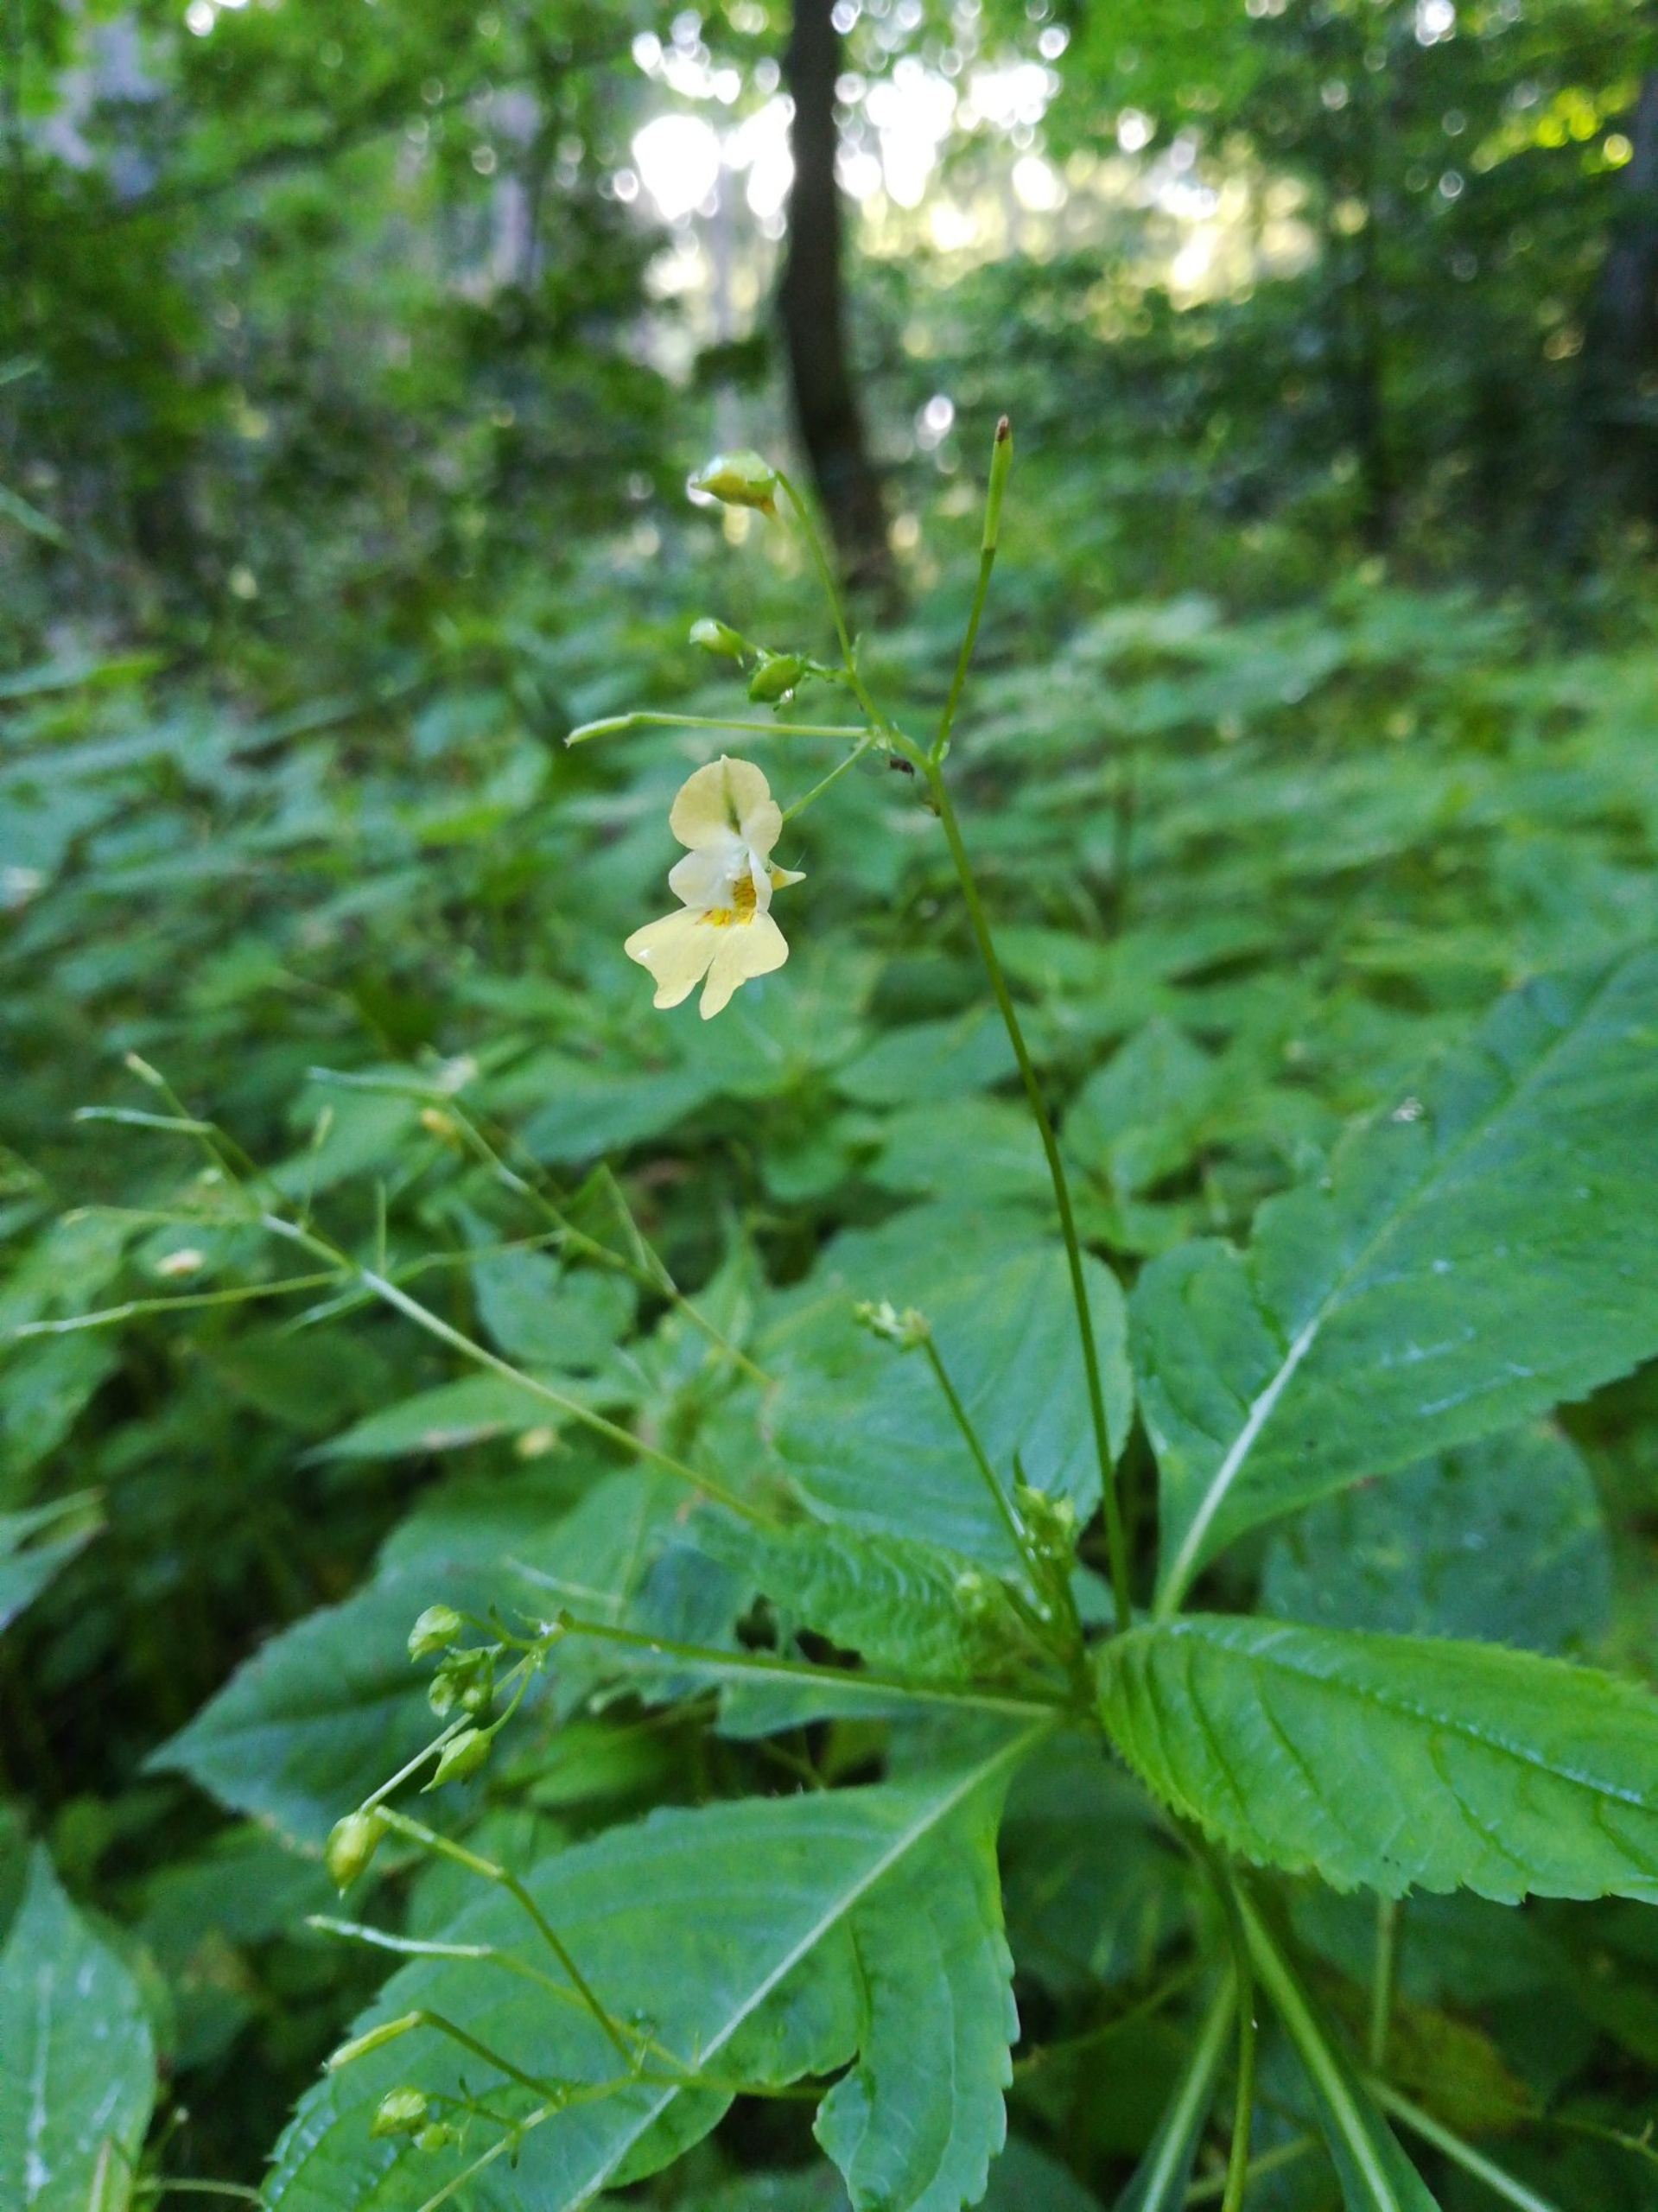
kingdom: Plantae
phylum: Tracheophyta
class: Magnoliopsida
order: Ericales
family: Balsaminaceae
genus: Impatiens
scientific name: Impatiens parviflora
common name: Småblomstret balsamin
